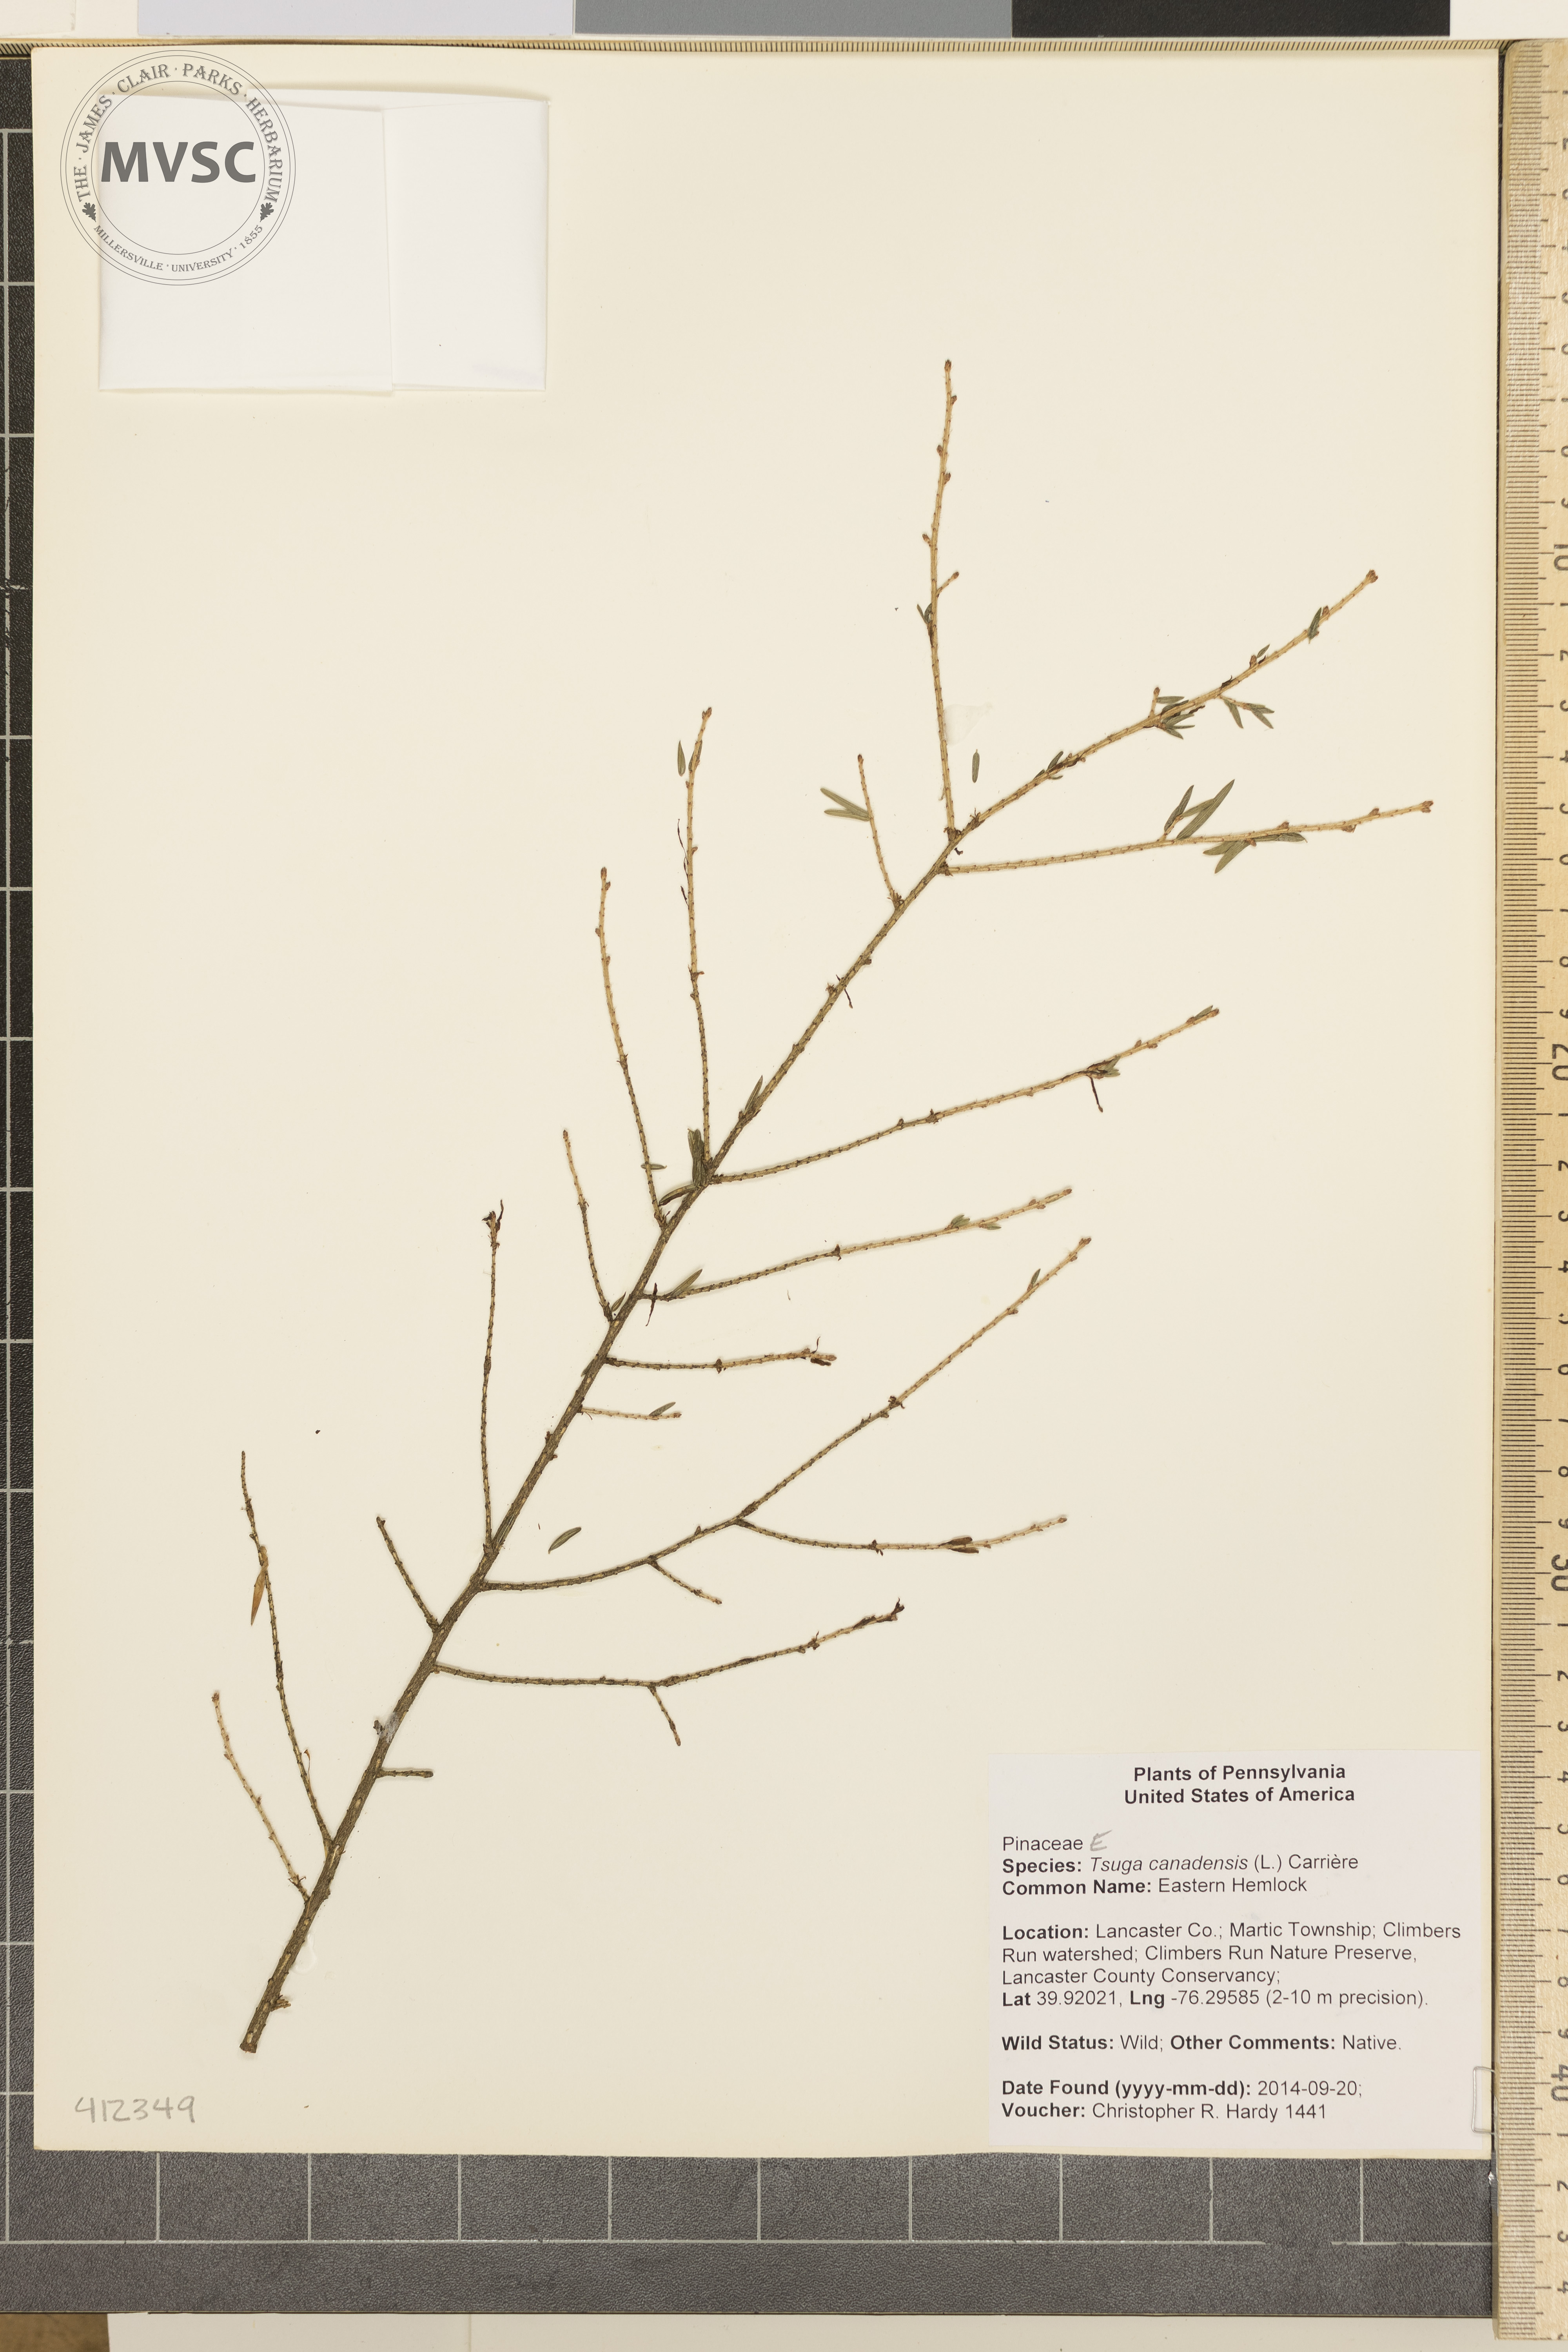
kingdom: Plantae
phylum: Tracheophyta
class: Pinopsida
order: Pinales
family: Pinaceae
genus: Tsuga
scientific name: Tsuga canadensis
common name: Eastern Hemlock
